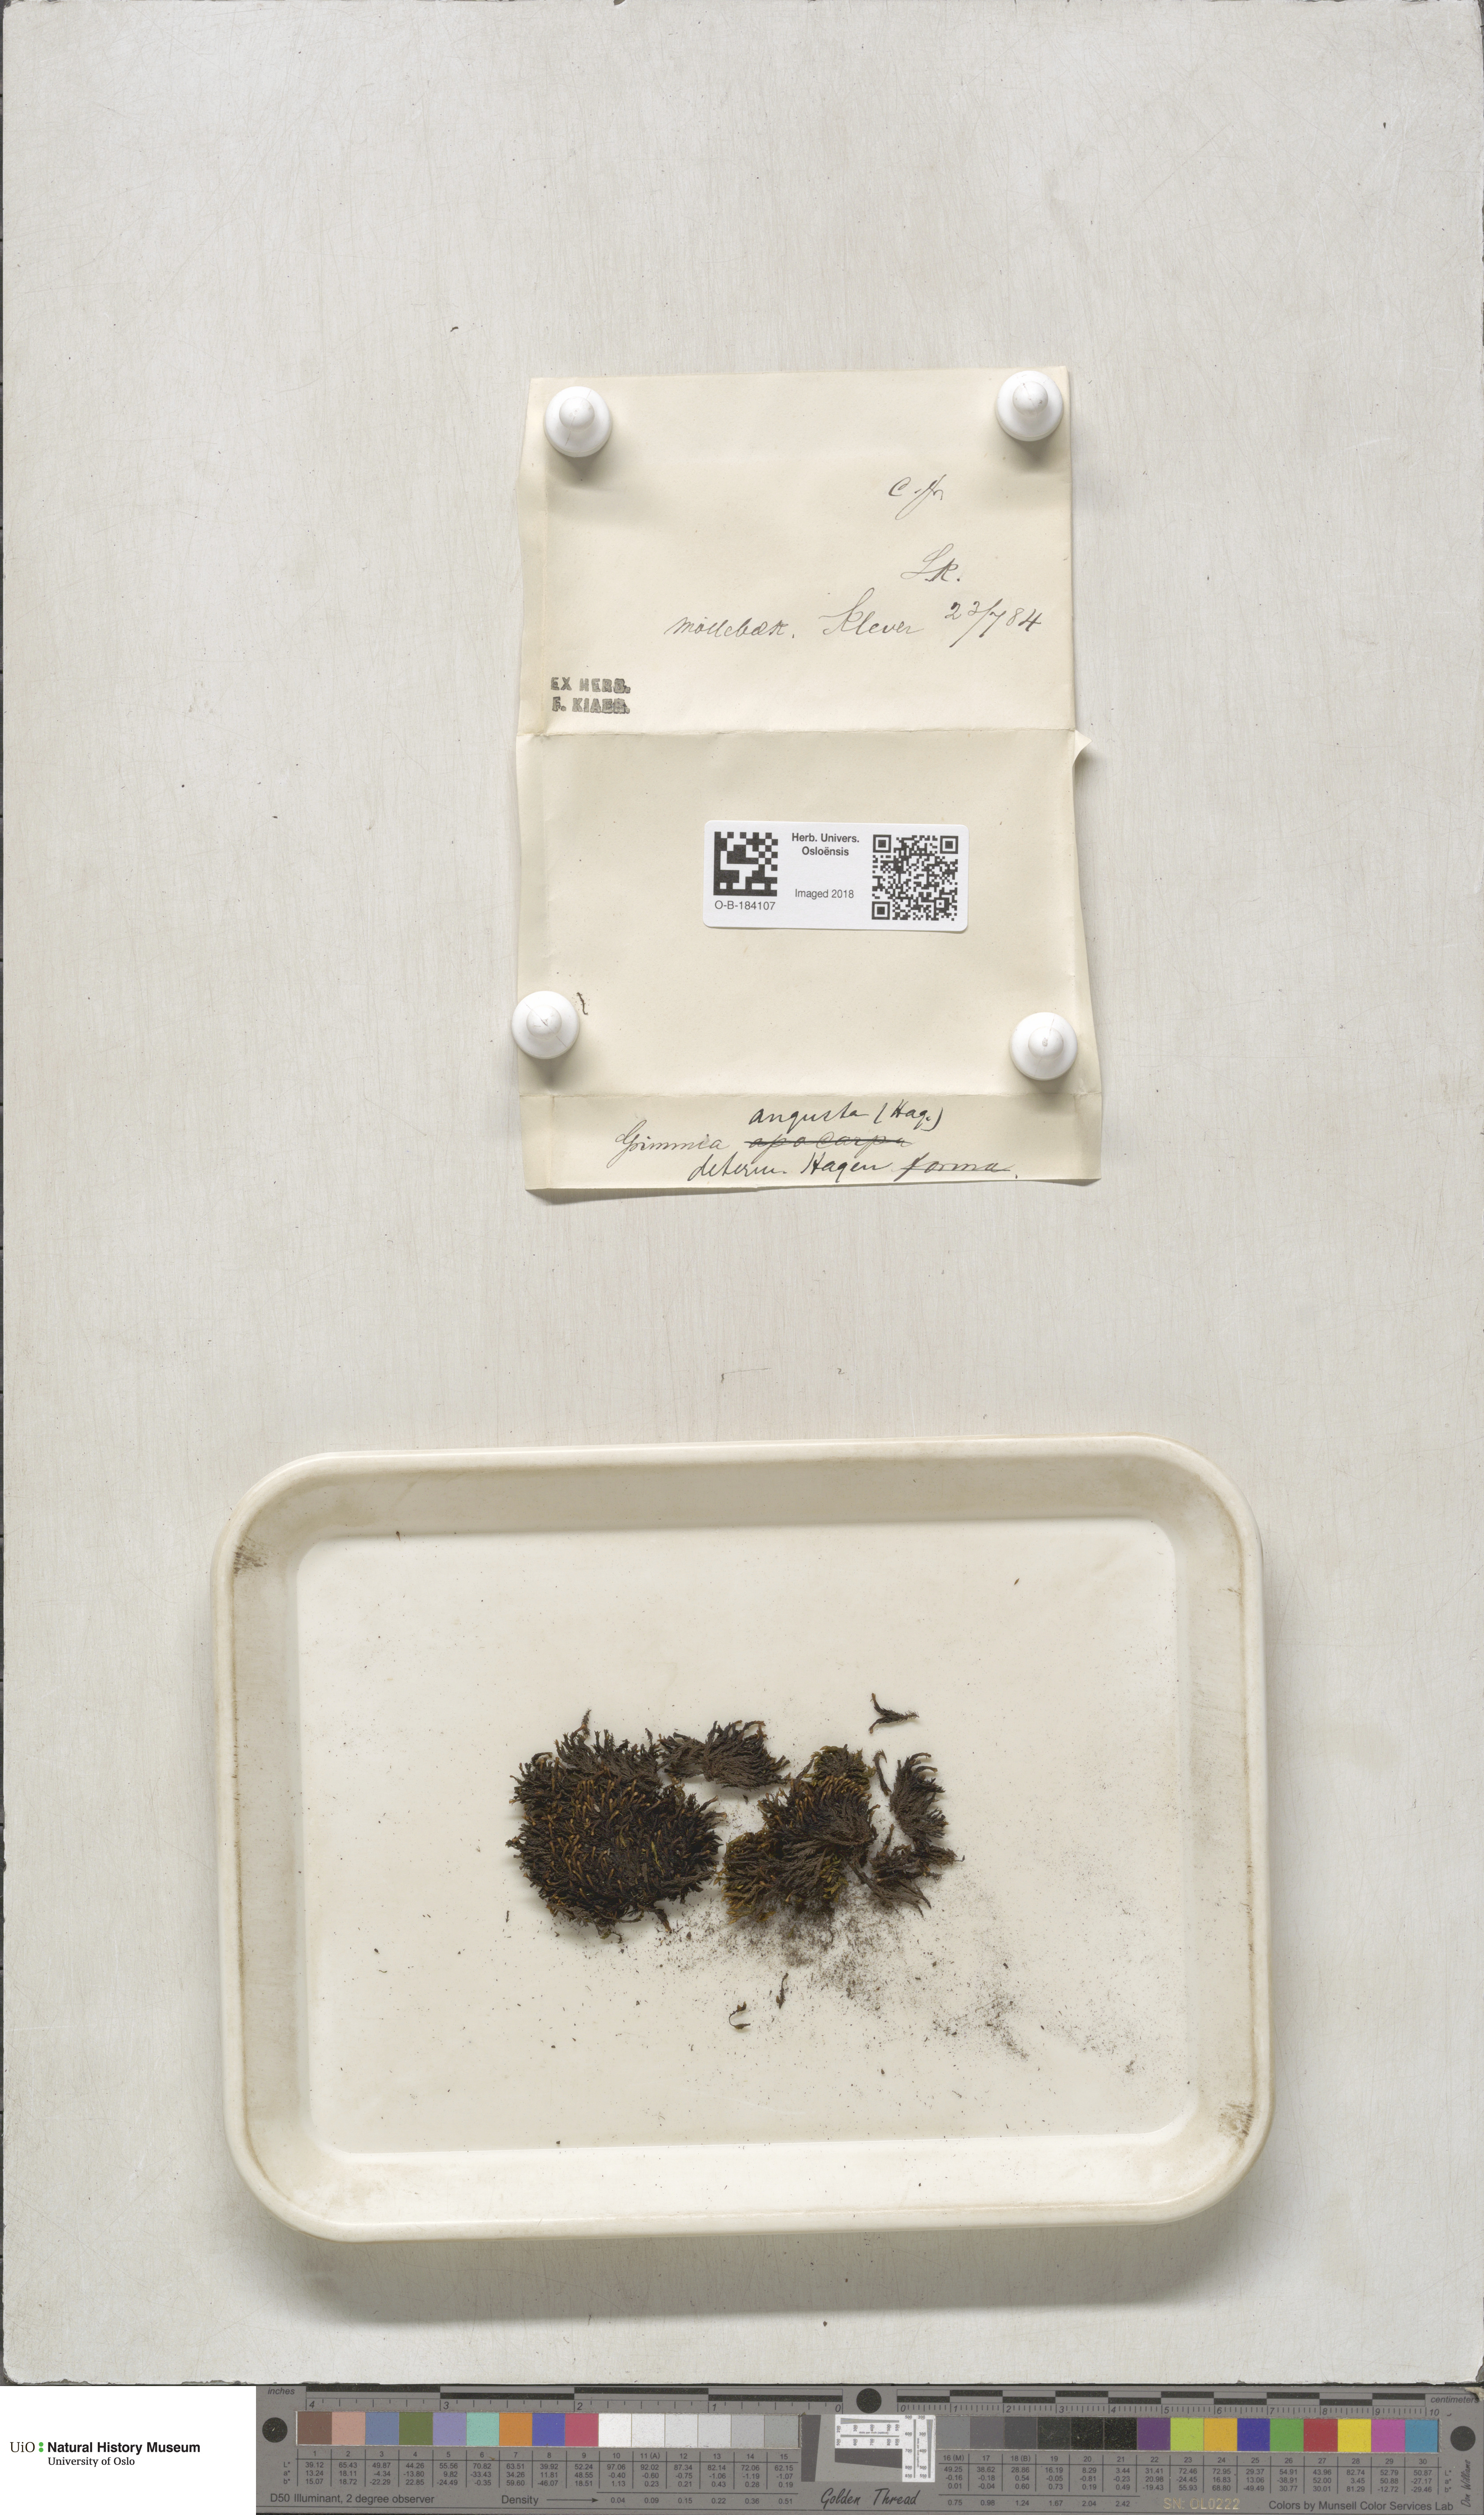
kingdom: Plantae
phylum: Bryophyta
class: Bryopsida
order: Grimmiales
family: Grimmiaceae
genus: Schistidium
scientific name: Schistidium agassizii
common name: Agassiz's bloom moss
